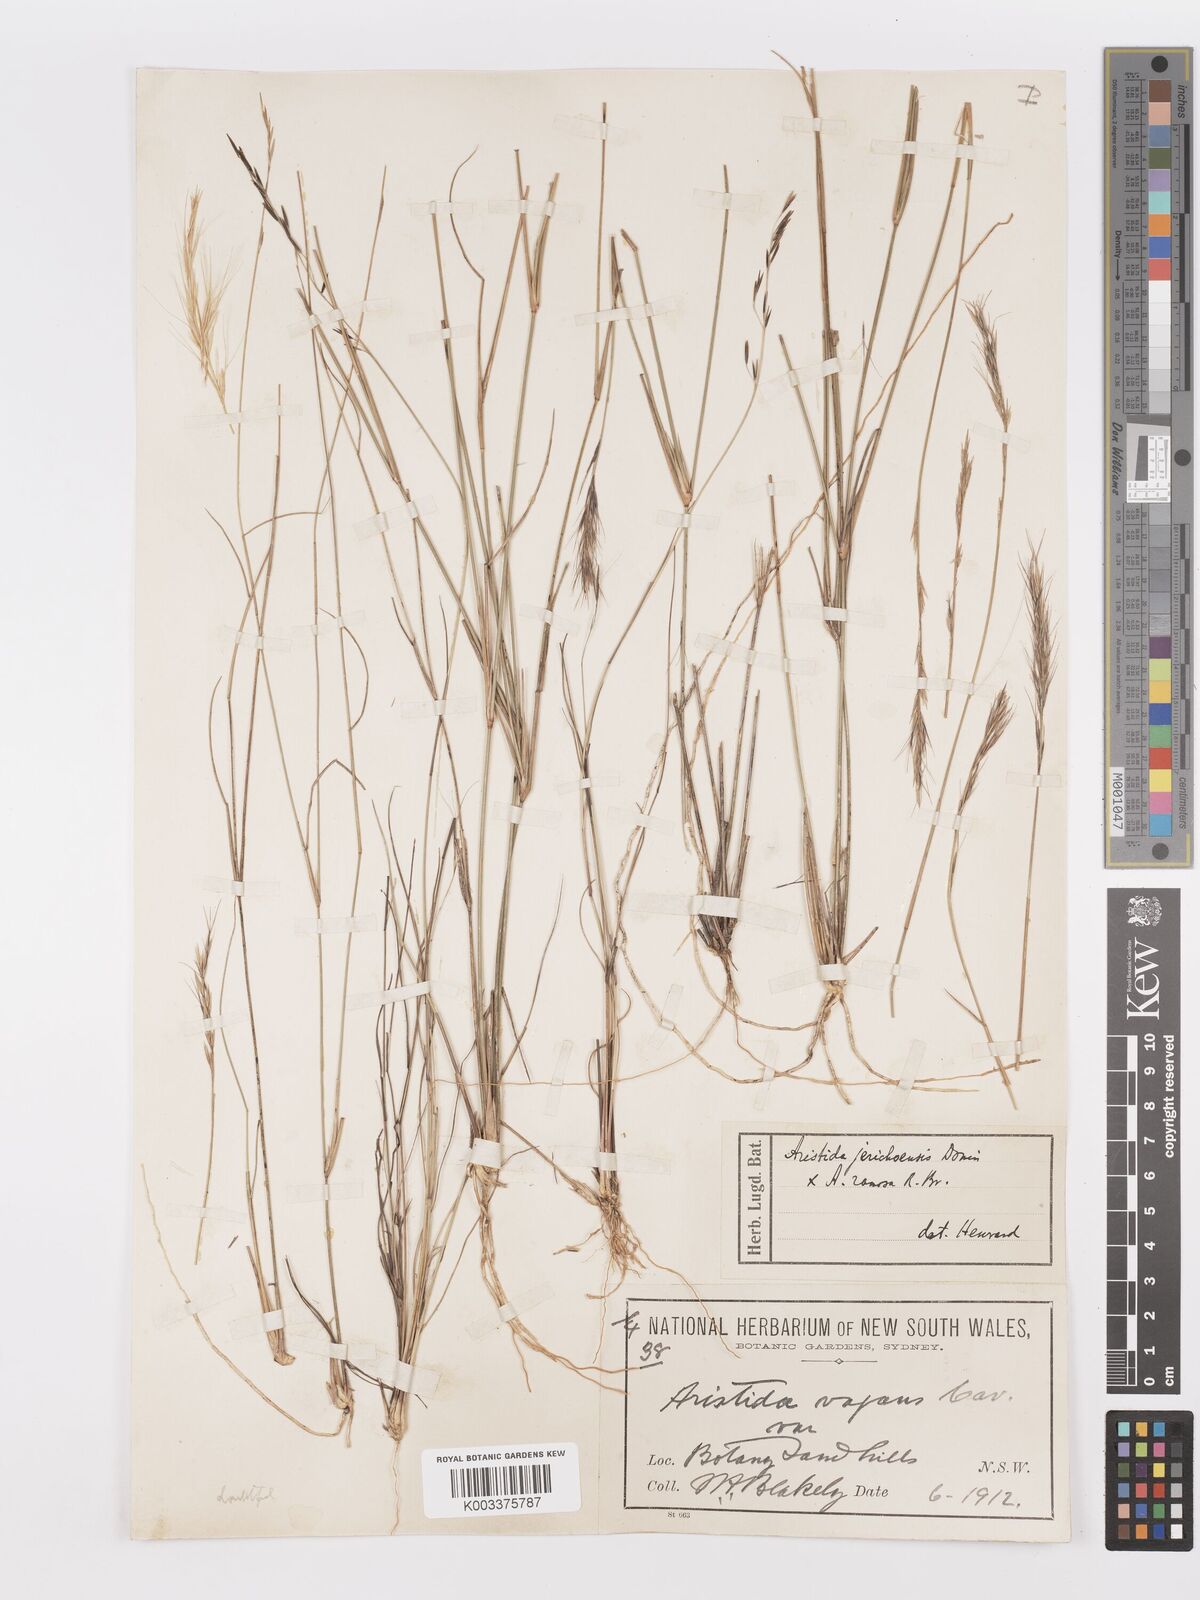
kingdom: Plantae
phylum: Tracheophyta
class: Liliopsida
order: Poales
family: Poaceae
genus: Aristida
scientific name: Aristida
